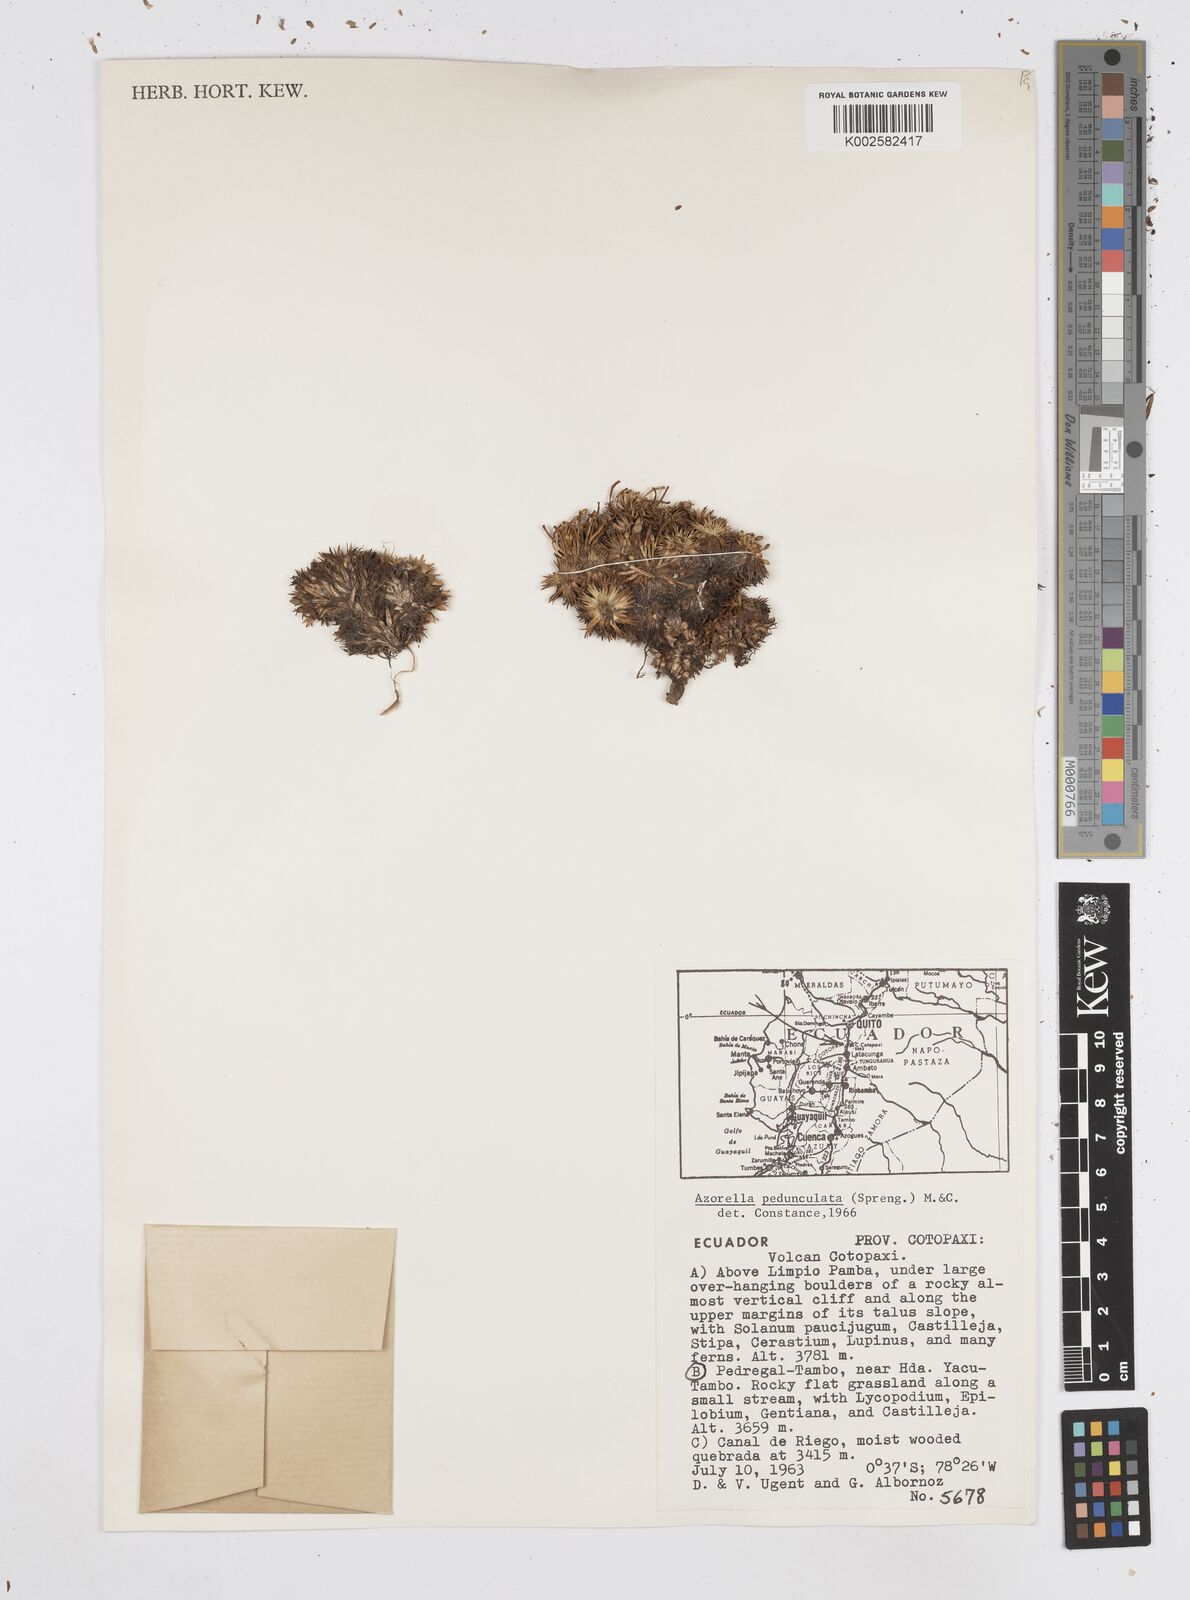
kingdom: Plantae
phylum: Tracheophyta
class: Magnoliopsida
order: Apiales
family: Apiaceae
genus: Azorella
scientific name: Azorella pedunculata
